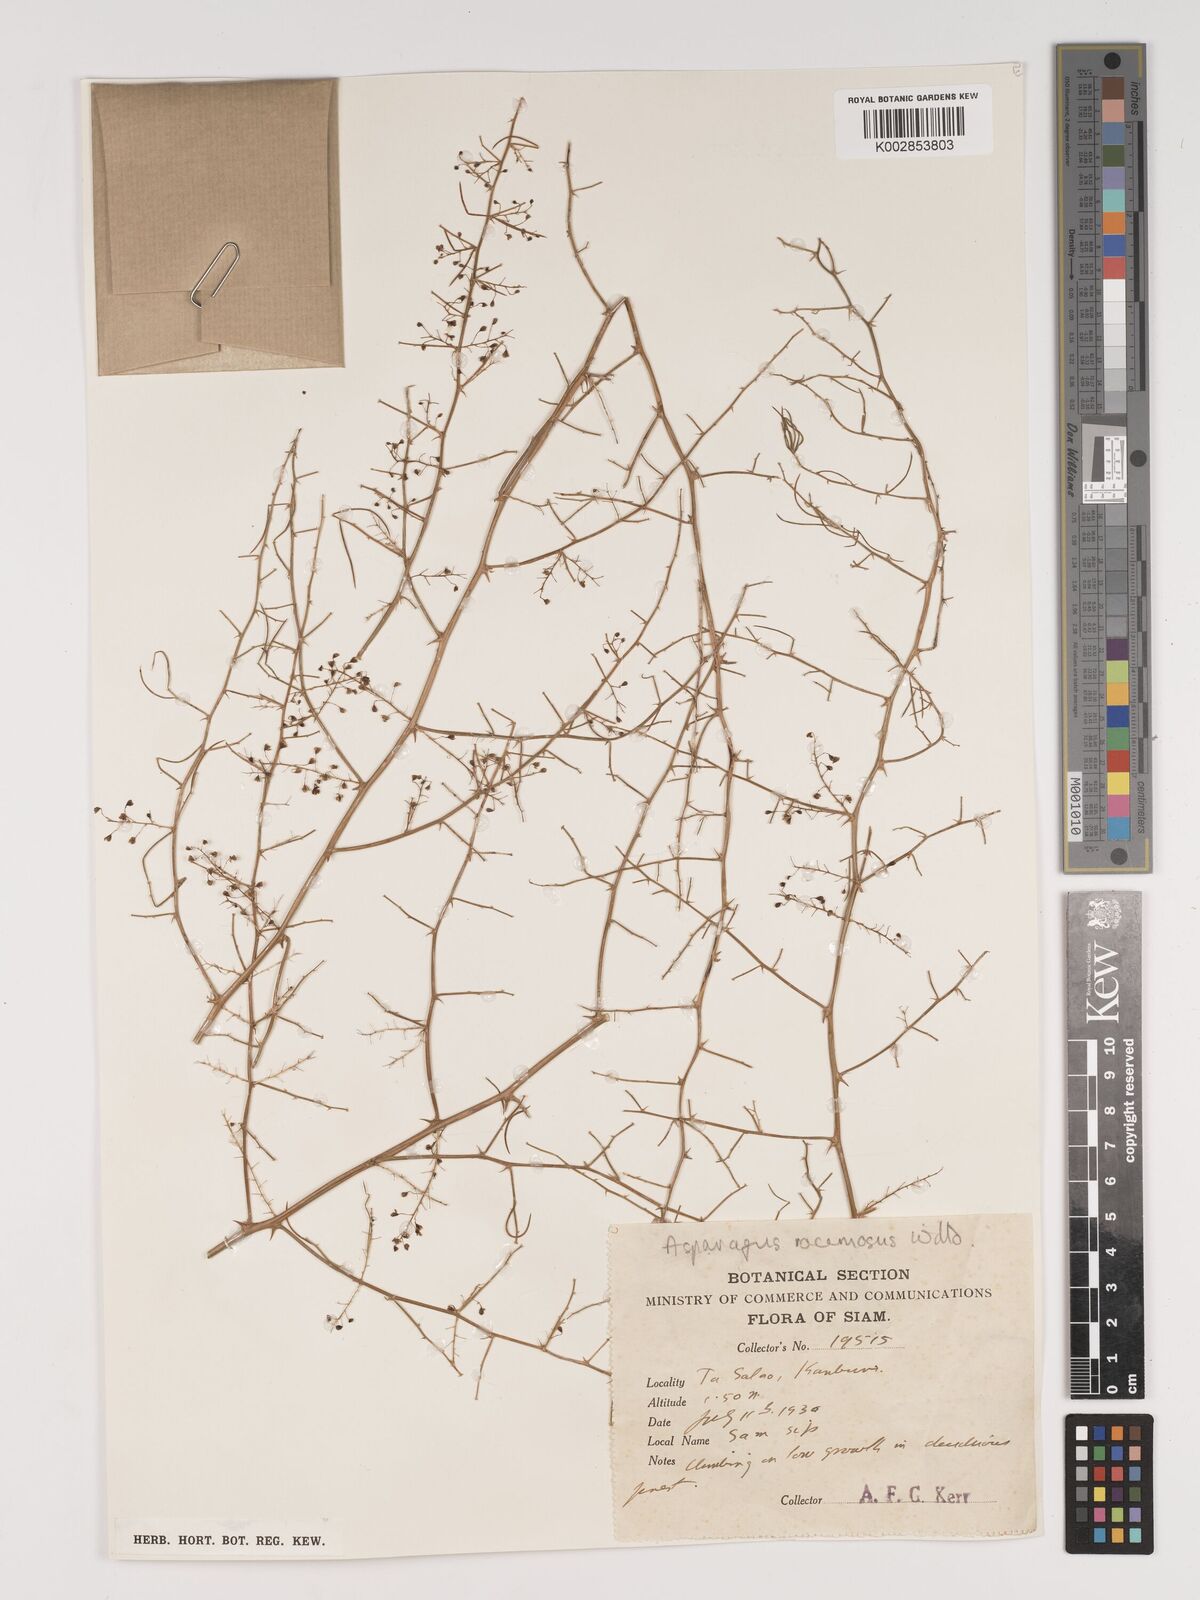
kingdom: Plantae
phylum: Tracheophyta
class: Liliopsida
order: Asparagales
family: Asparagaceae
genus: Asparagus
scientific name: Asparagus racemosus
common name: Asparagus-fern
